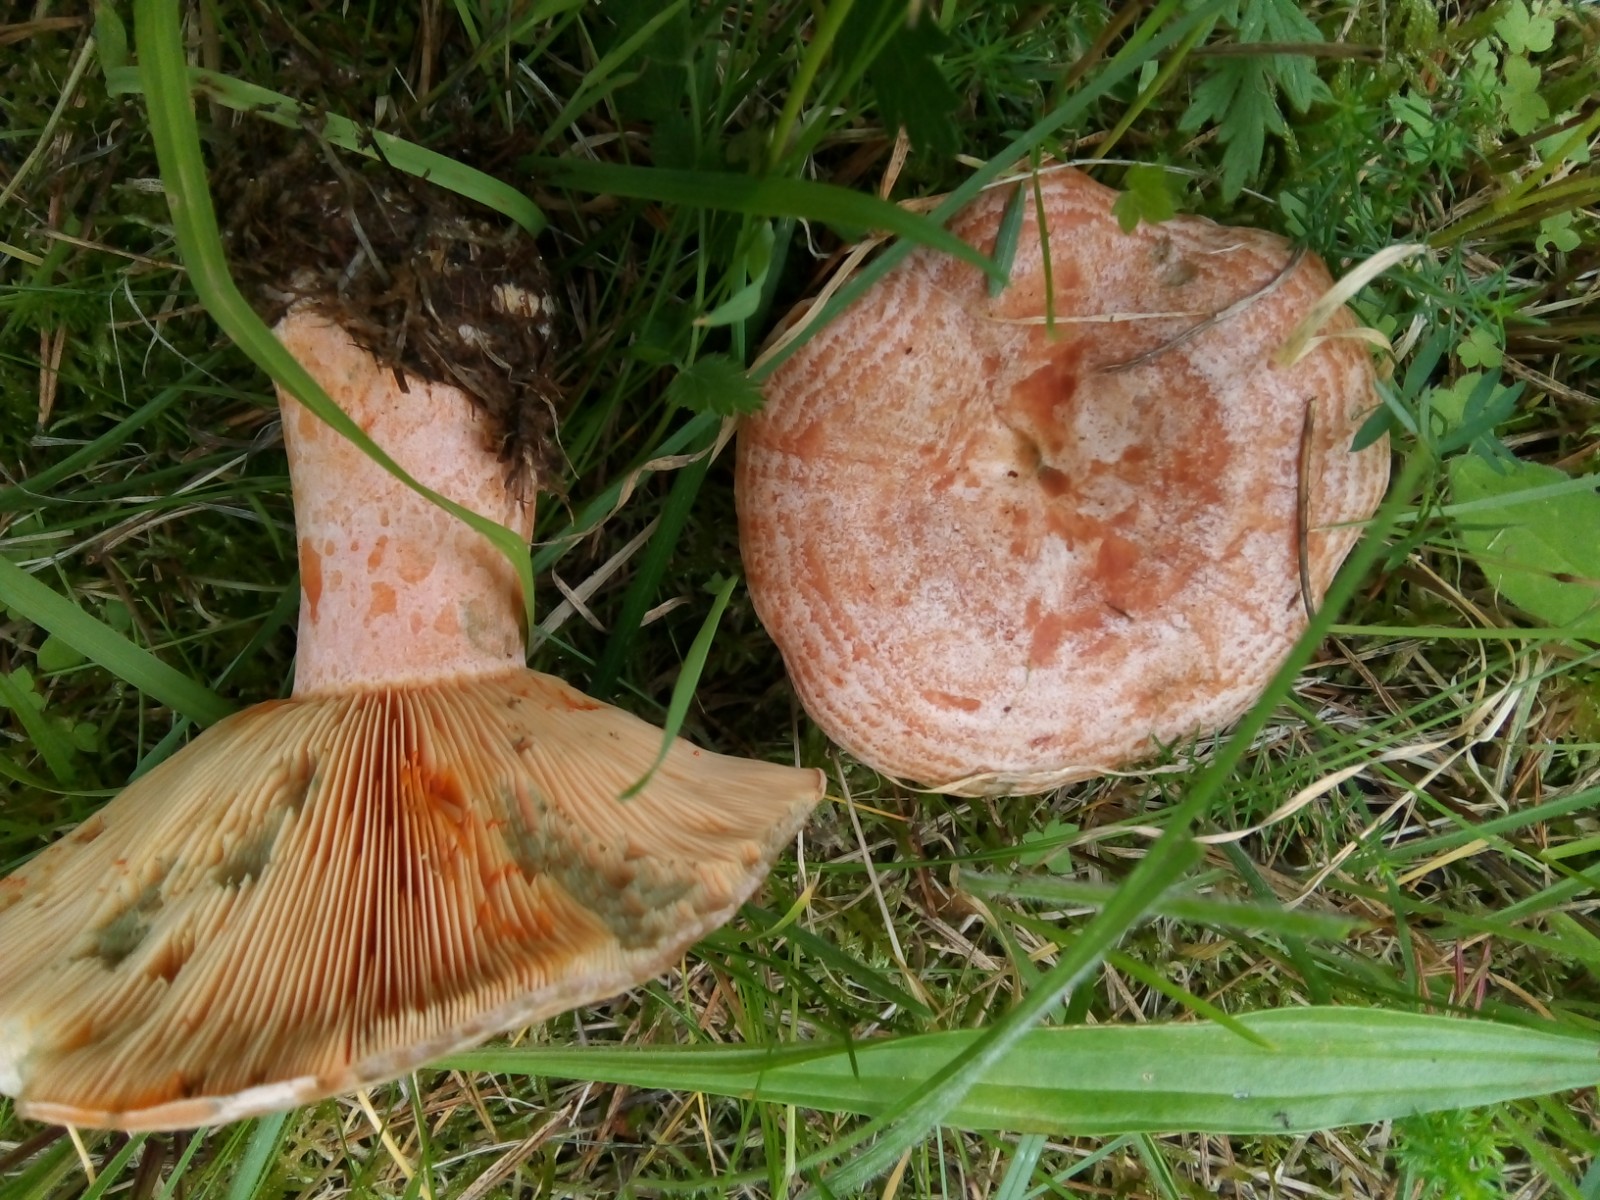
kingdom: Fungi
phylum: Basidiomycota
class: Agaricomycetes
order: Russulales
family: Russulaceae
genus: Lactarius
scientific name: Lactarius deliciosus
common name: velsmagende mælkehat
